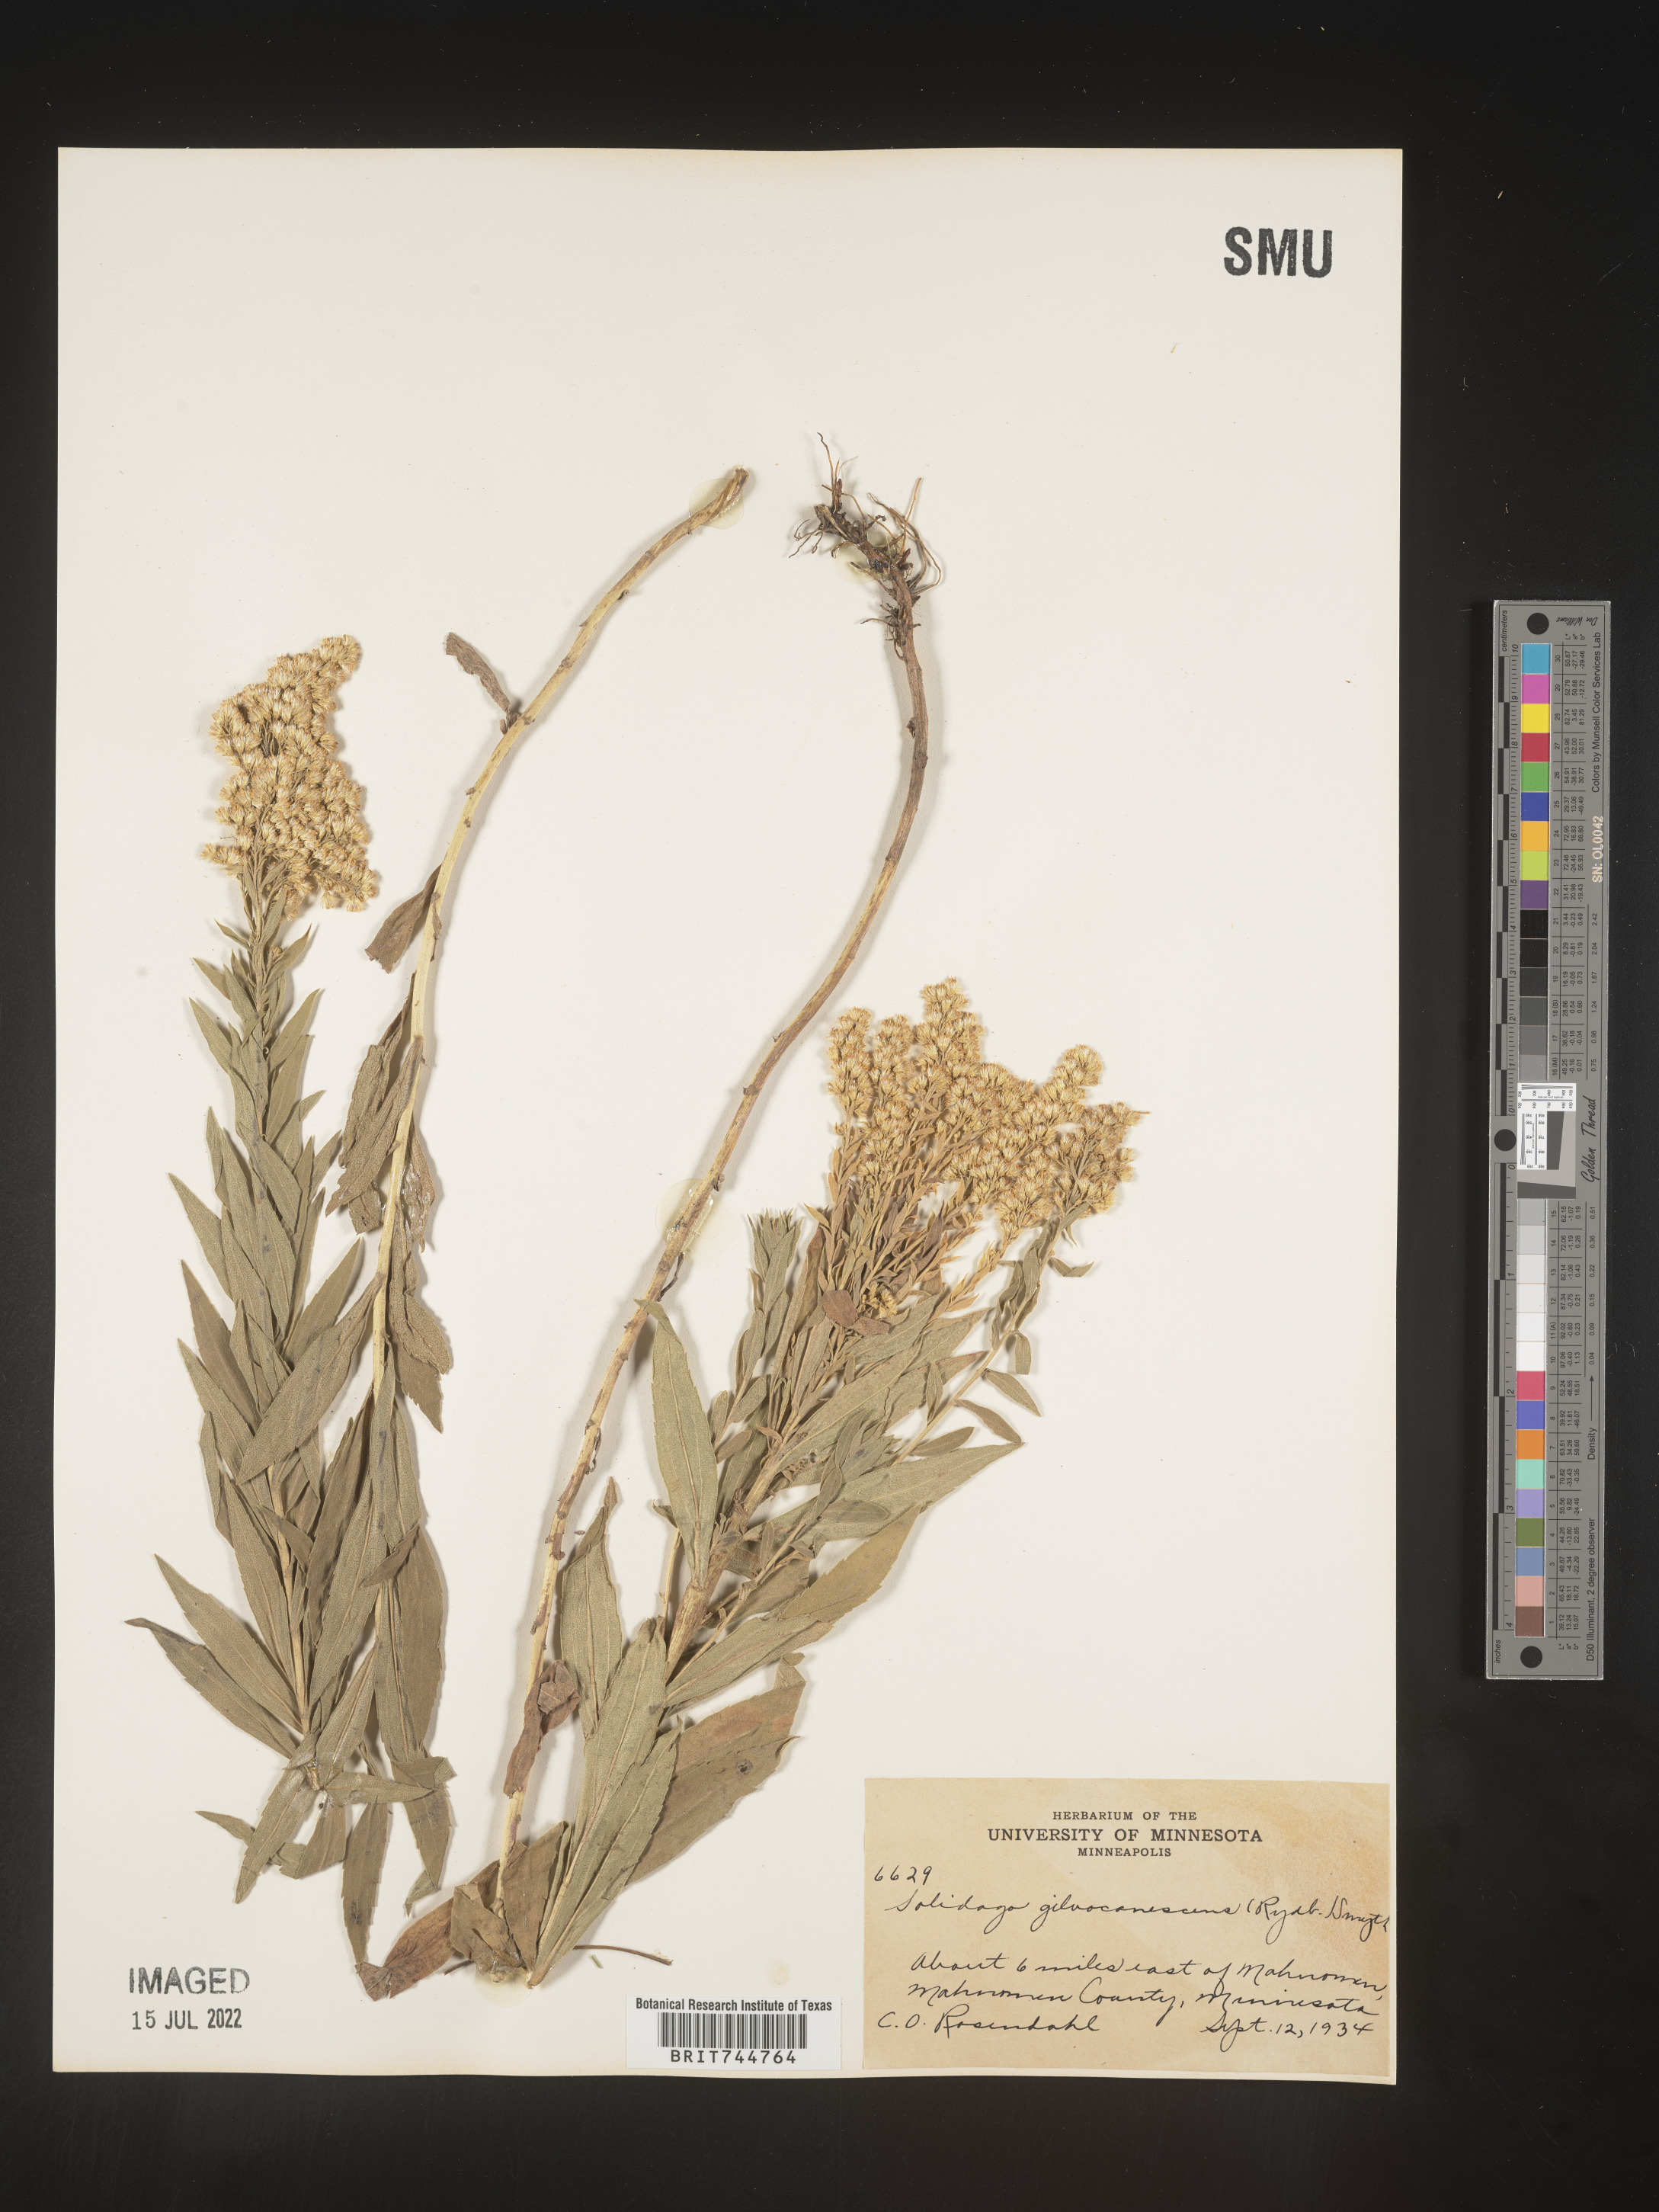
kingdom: Plantae
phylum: Tracheophyta
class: Magnoliopsida
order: Asterales
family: Asteraceae
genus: Solidago
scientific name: Solidago canadensis
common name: Canada goldenrod
